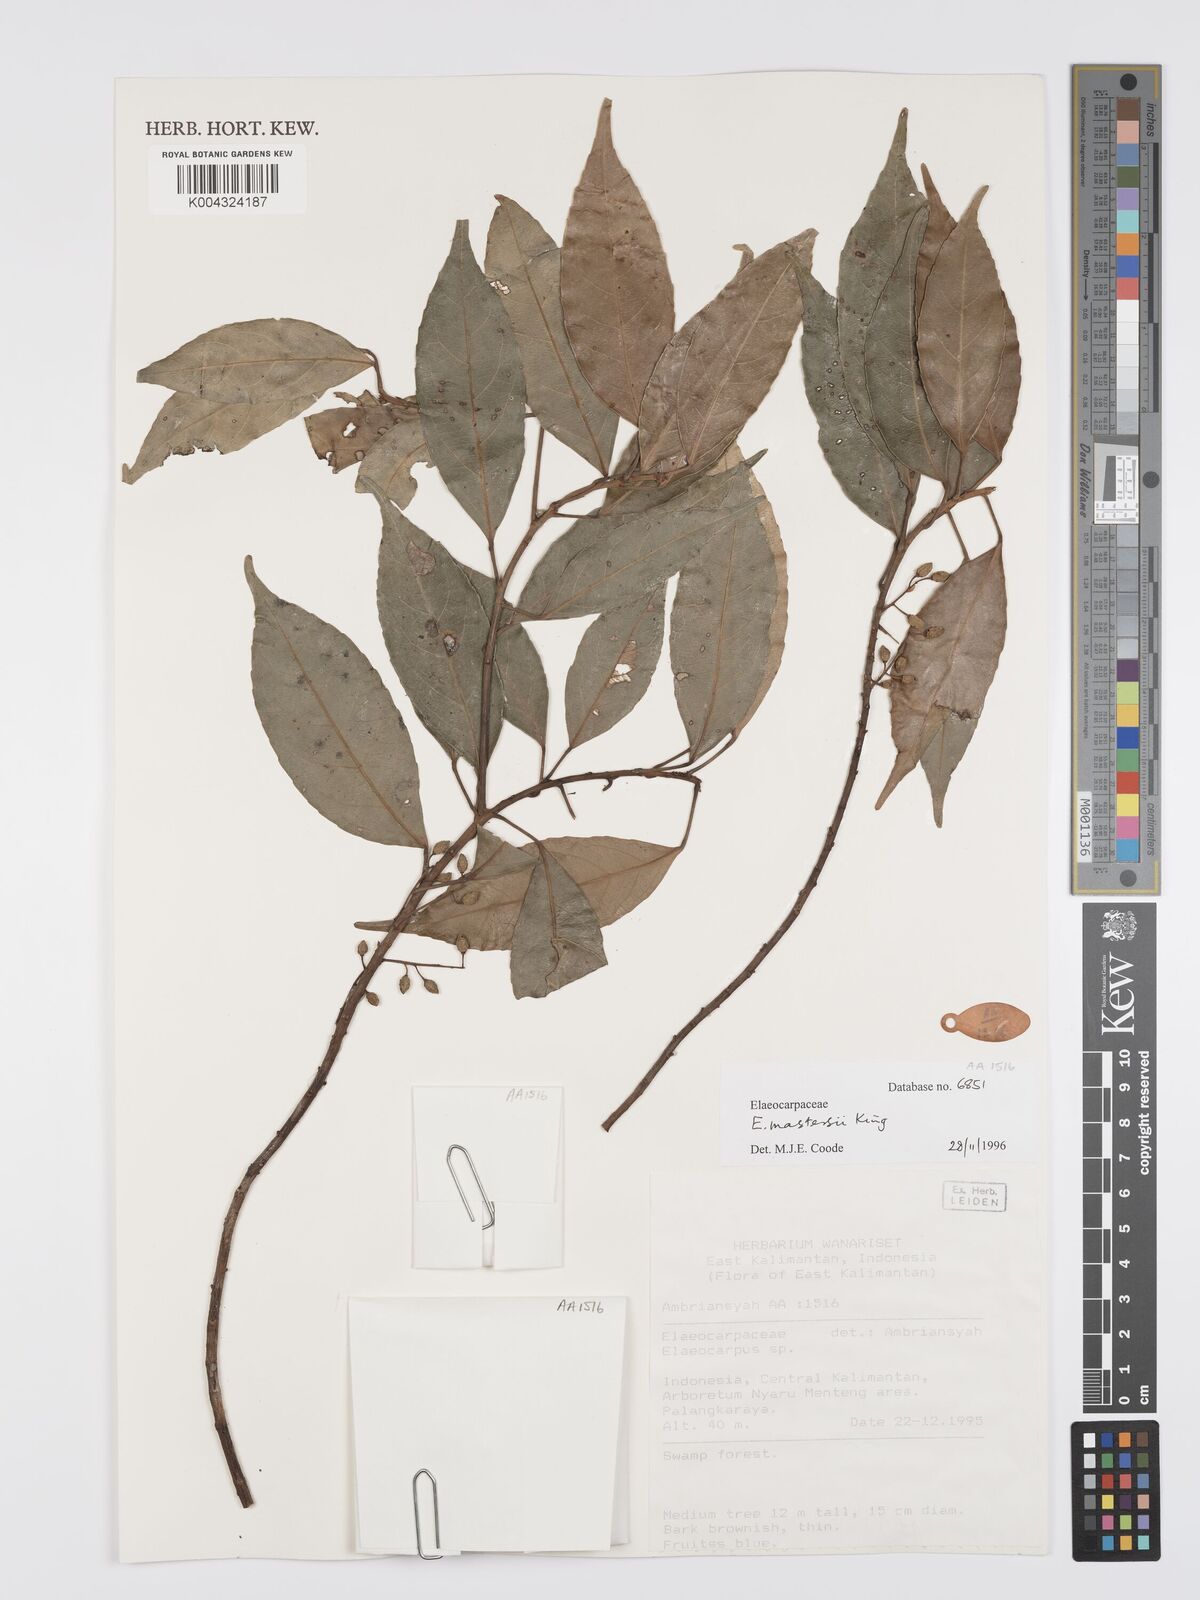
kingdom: Plantae
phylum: Tracheophyta
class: Magnoliopsida
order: Oxalidales
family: Elaeocarpaceae
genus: Elaeocarpus
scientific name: Elaeocarpus mastersii
